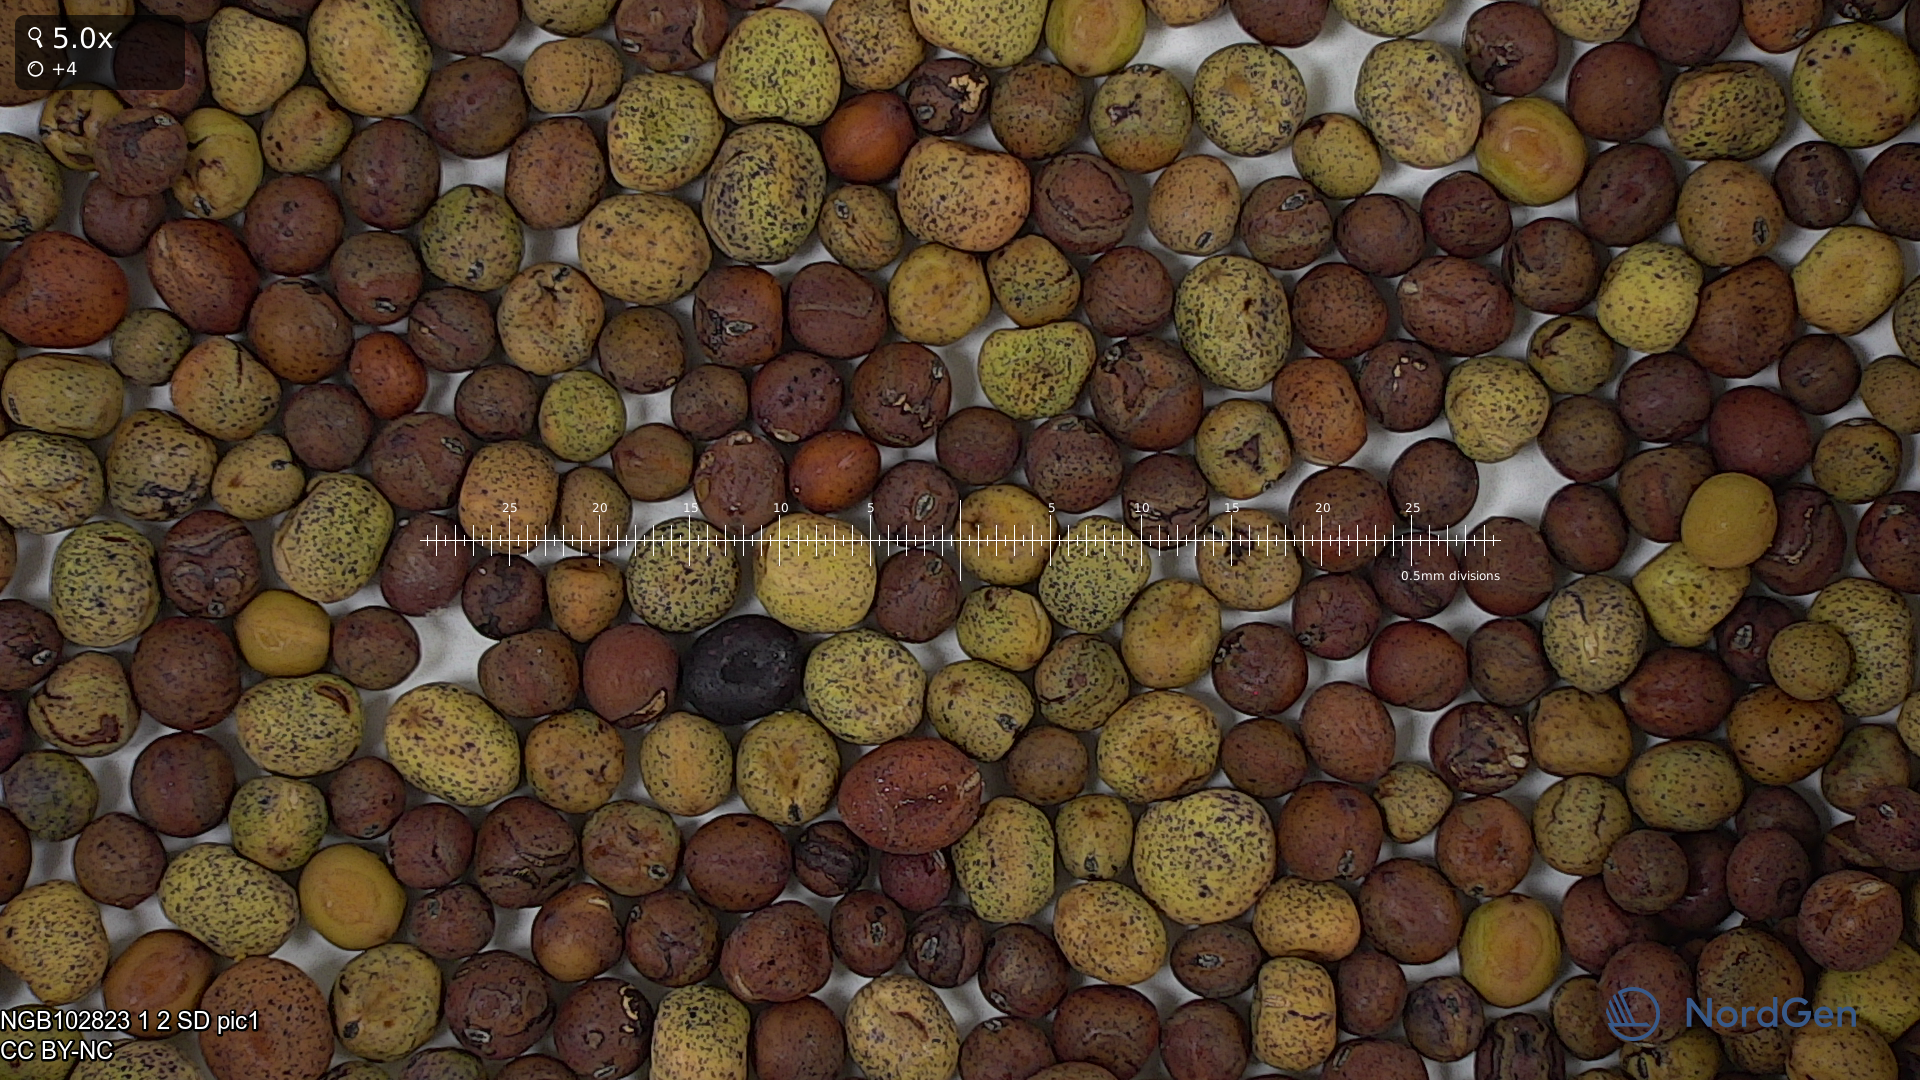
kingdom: Plantae
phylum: Tracheophyta
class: Magnoliopsida
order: Fabales
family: Fabaceae
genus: Lathyrus
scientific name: Lathyrus oleraceus
